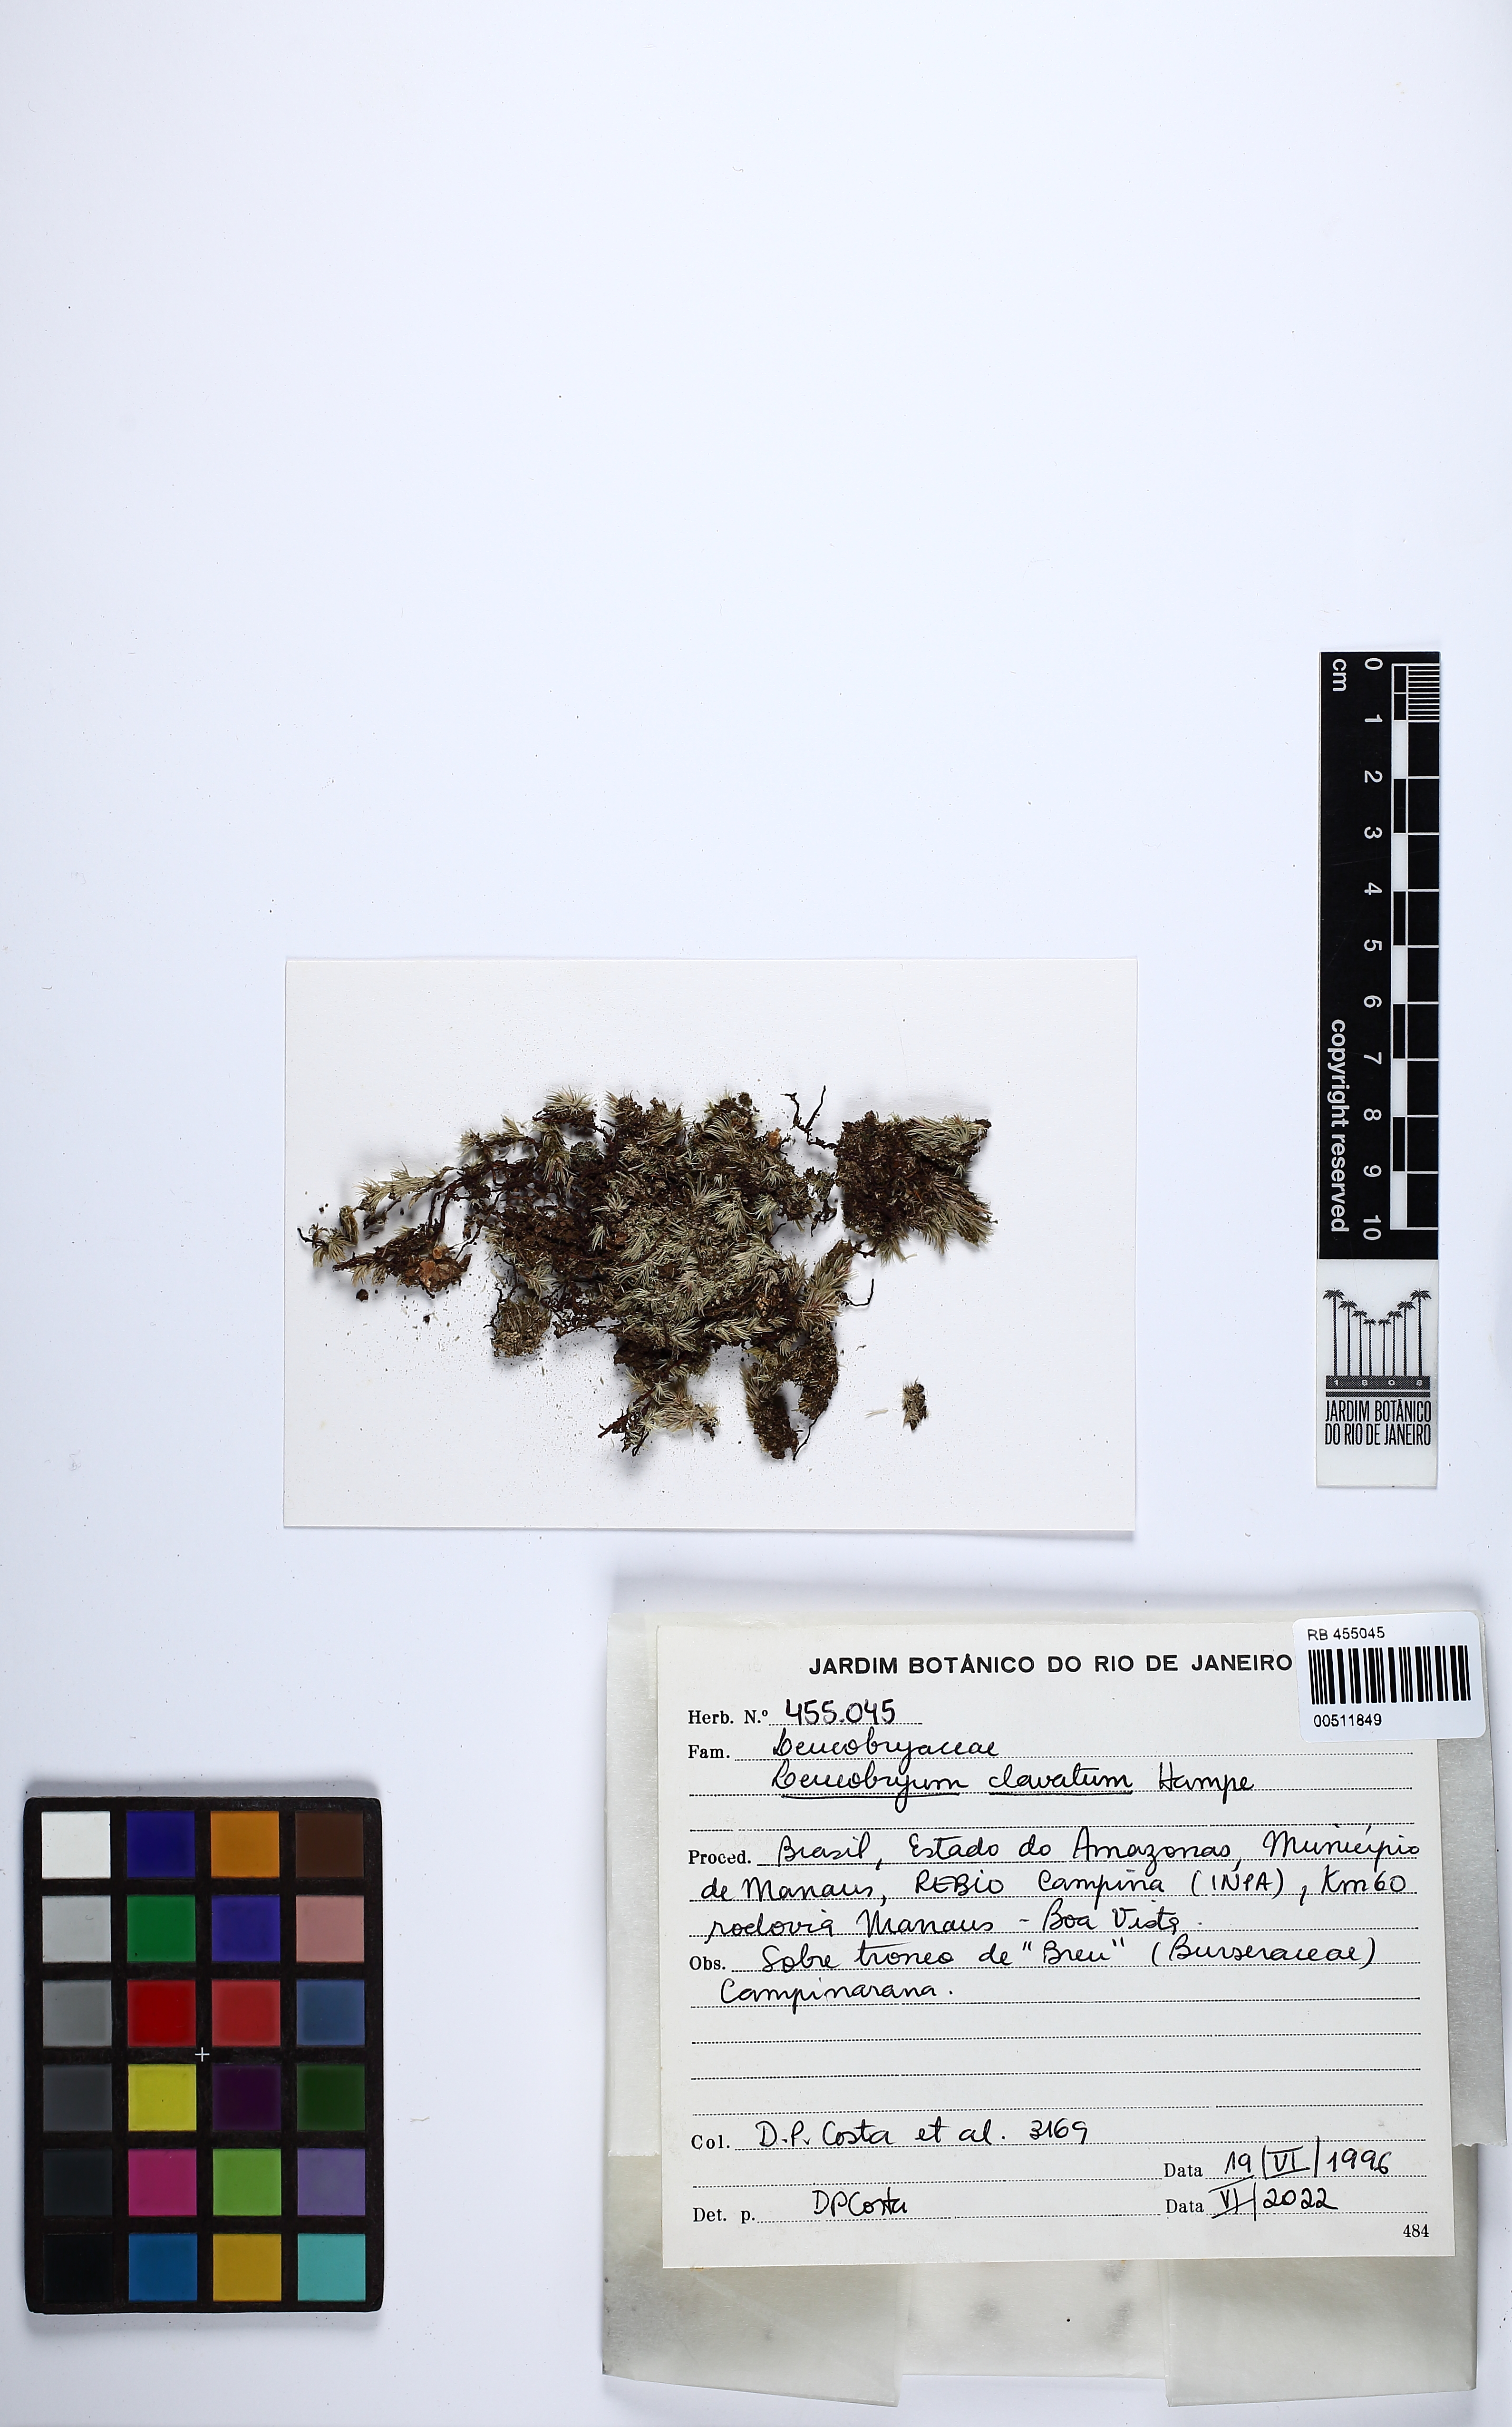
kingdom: Plantae
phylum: Bryophyta
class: Bryopsida
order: Dicranales
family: Leucobryaceae
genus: Leucobryum
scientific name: Leucobryum clavatum
